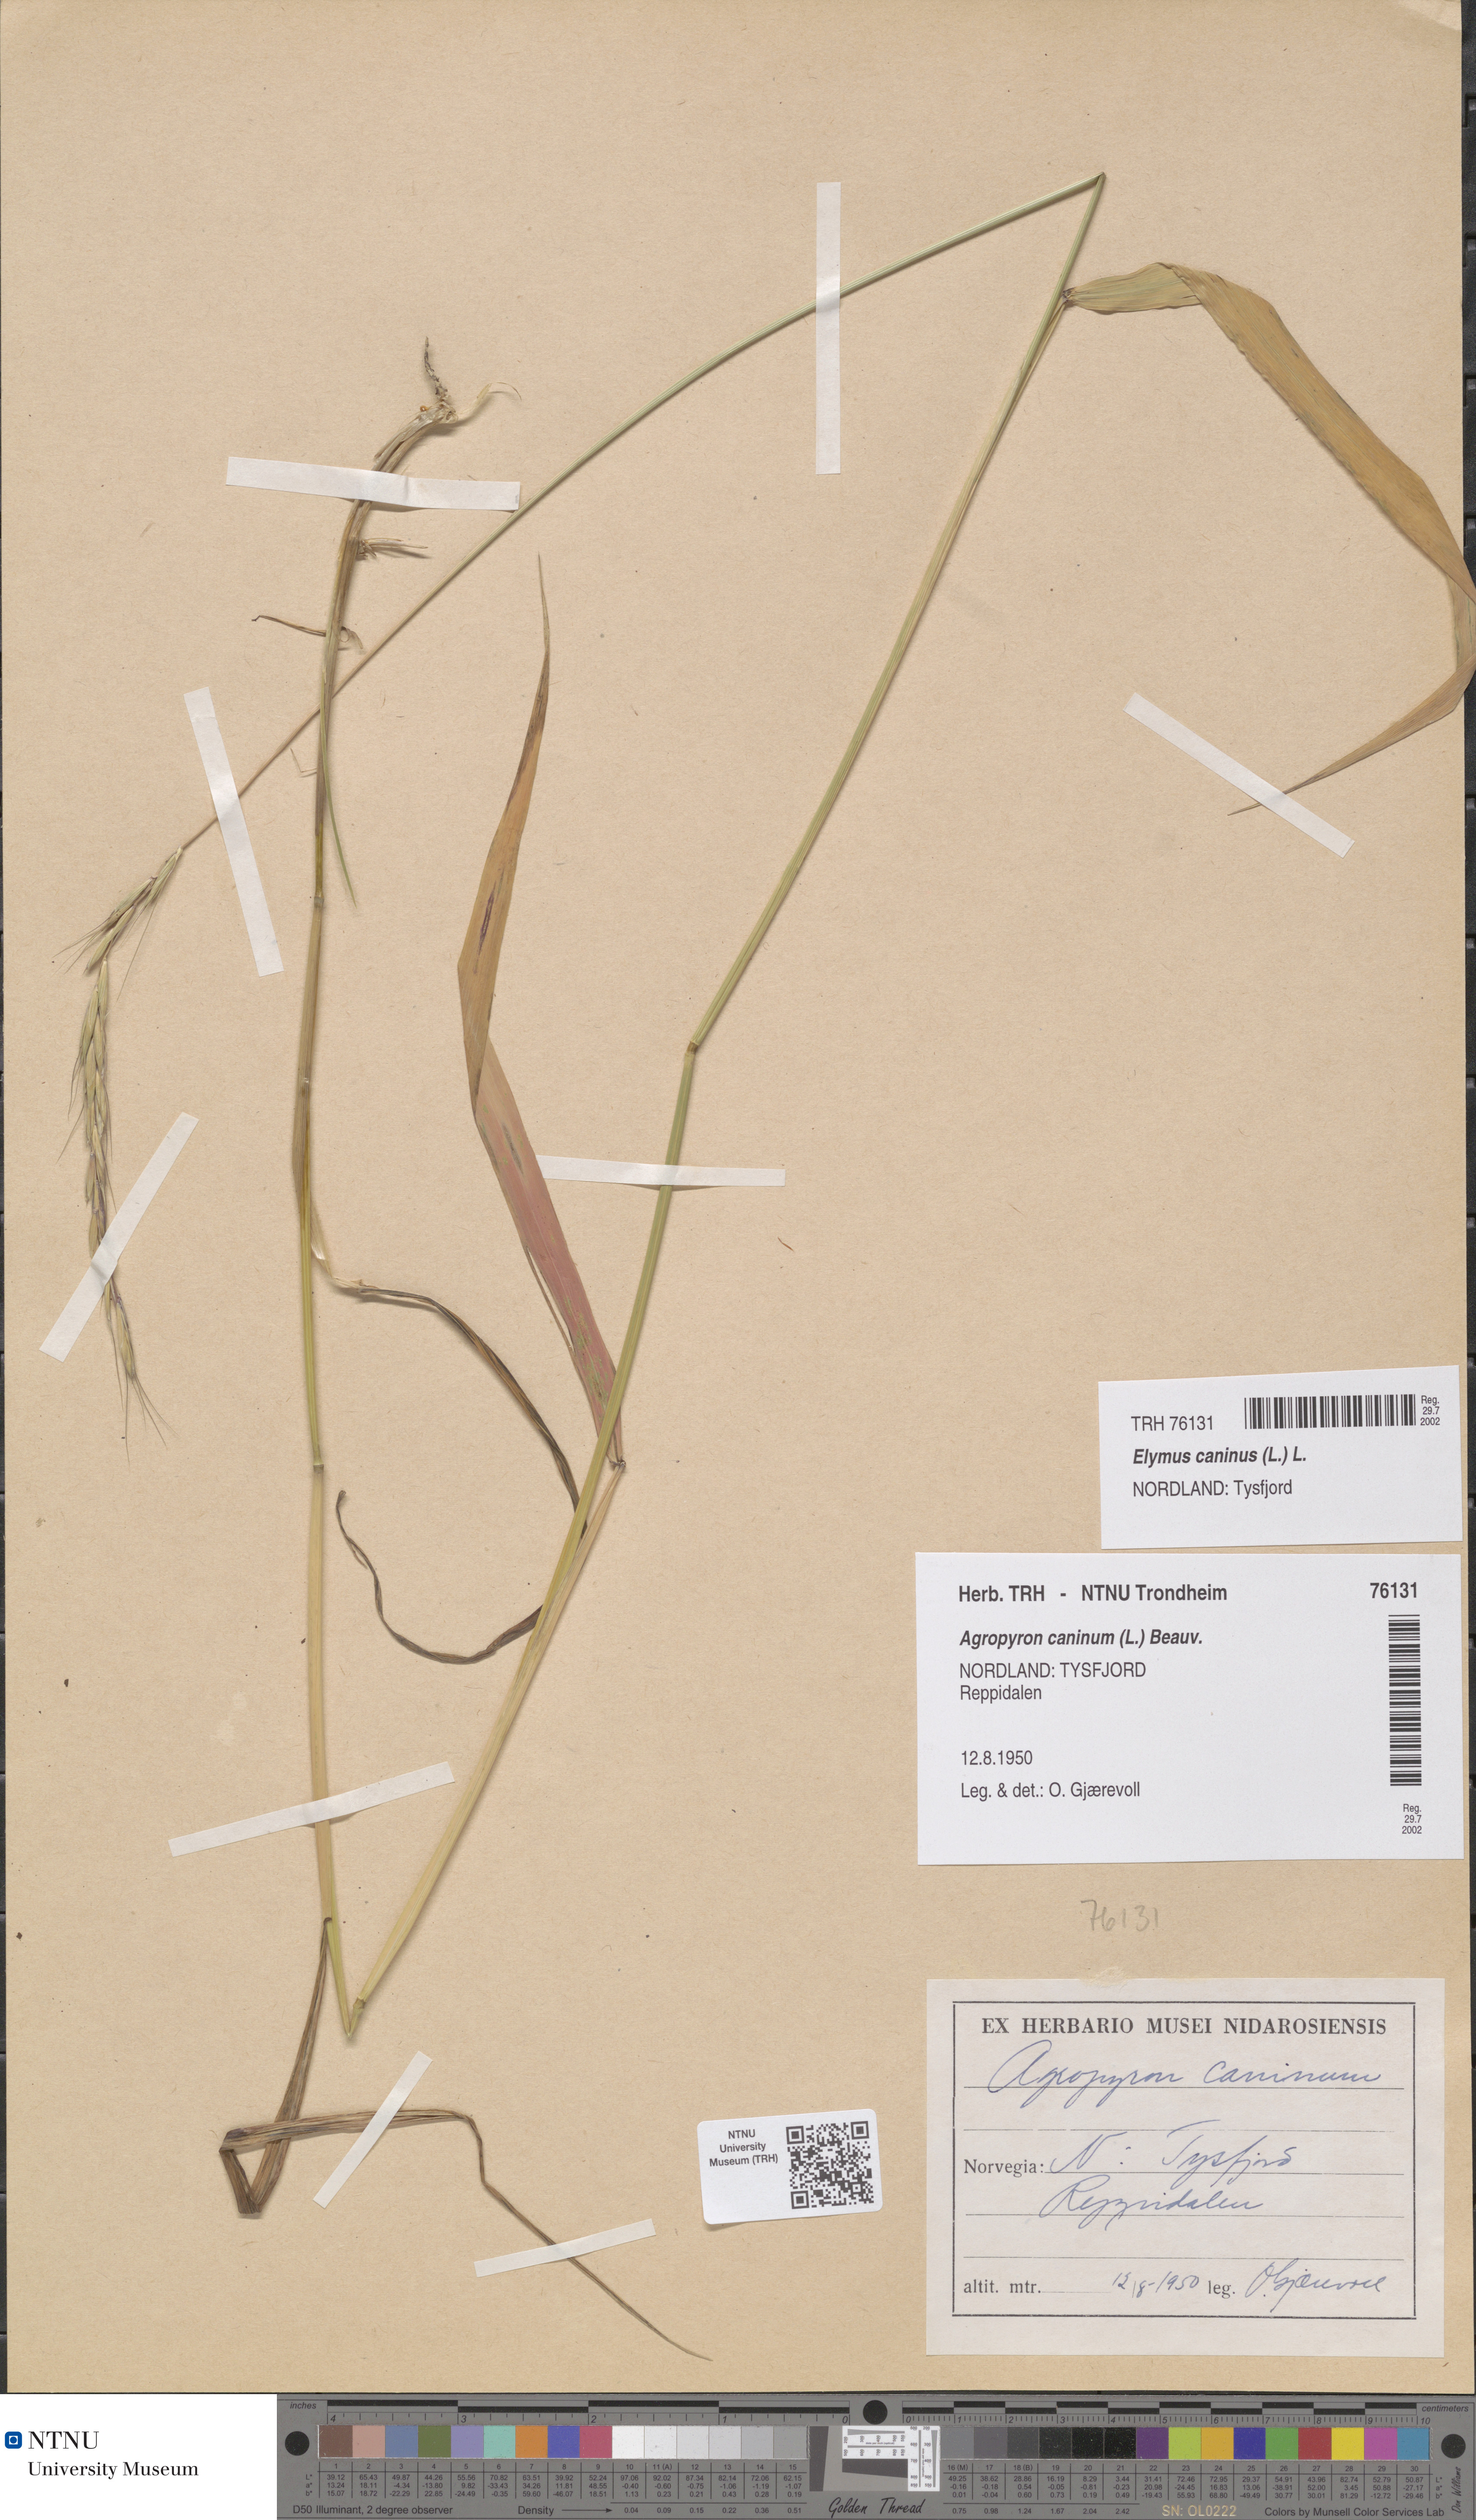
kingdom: Plantae
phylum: Tracheophyta
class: Liliopsida
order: Poales
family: Poaceae
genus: Elymus
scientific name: Elymus caninus
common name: Bearded couch
